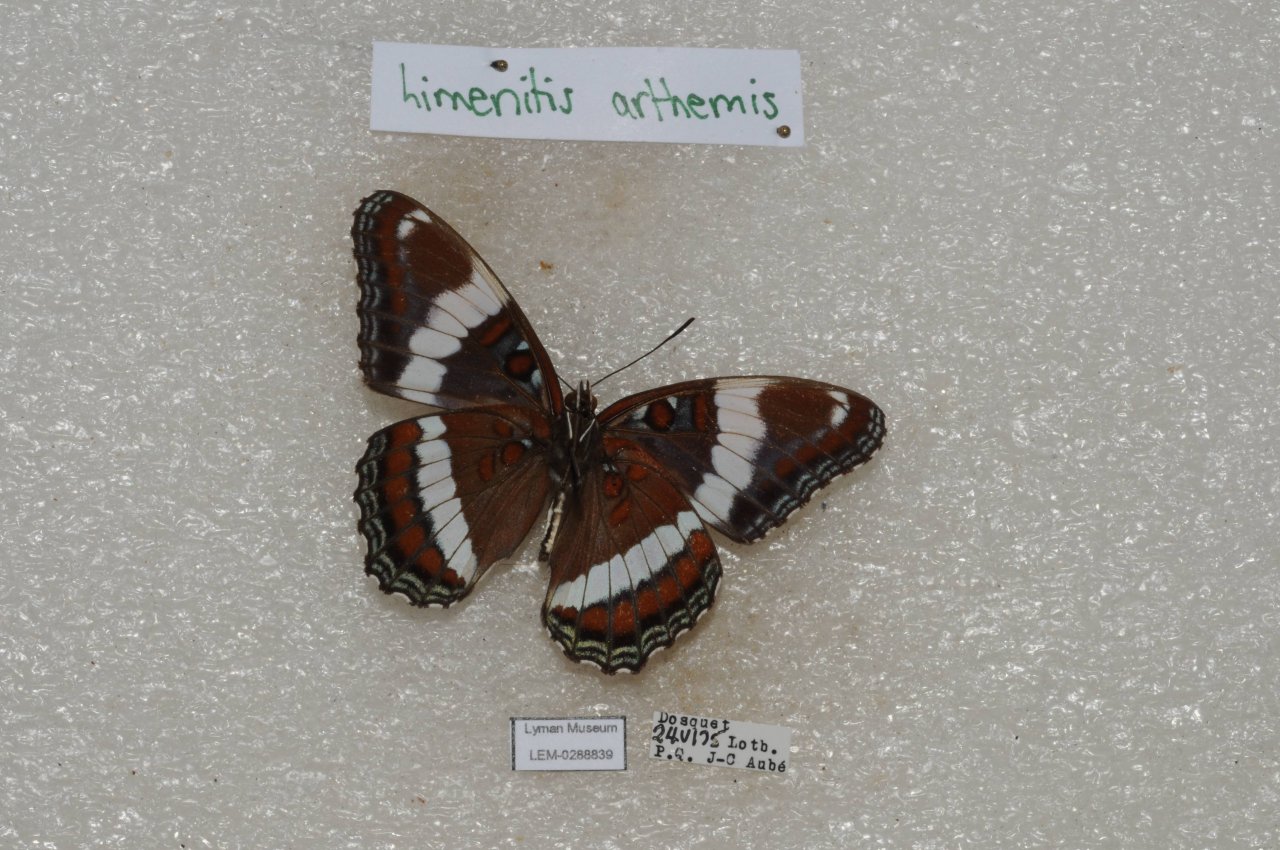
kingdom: Animalia
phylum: Arthropoda
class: Insecta
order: Lepidoptera
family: Nymphalidae
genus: Limenitis
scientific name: Limenitis arthemis
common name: Red-spotted Admiral
